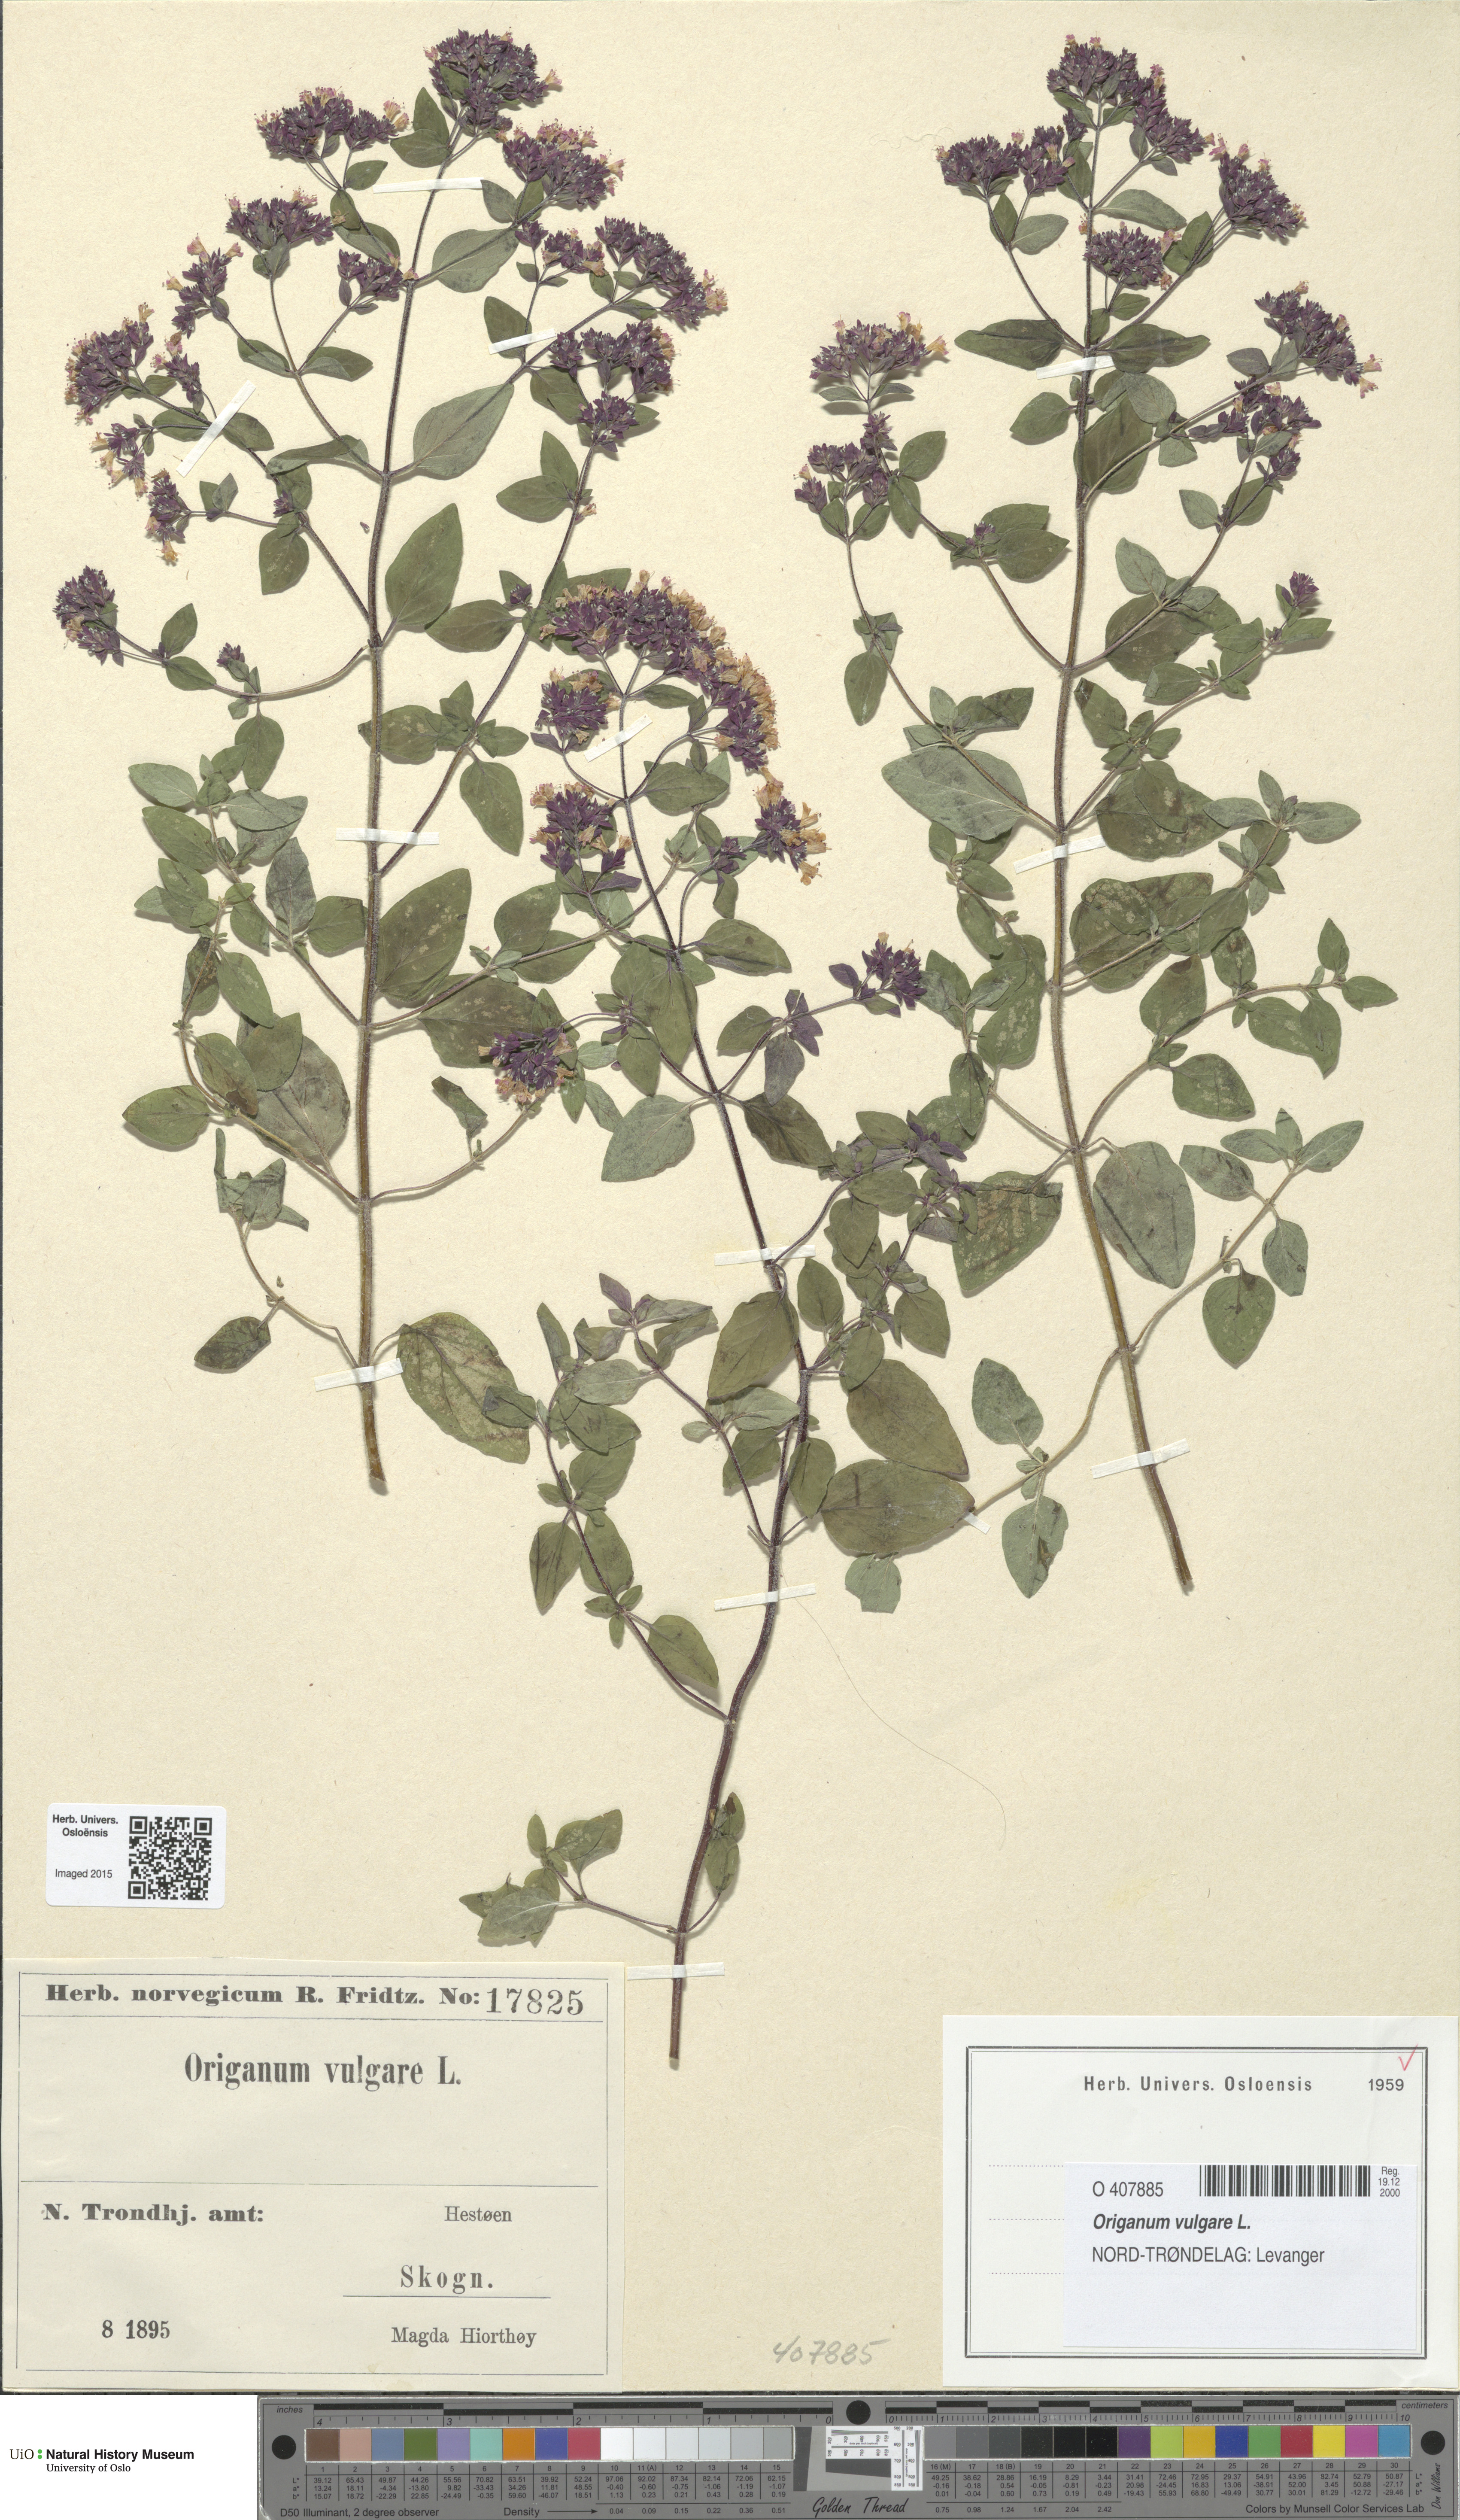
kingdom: Plantae
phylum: Tracheophyta
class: Magnoliopsida
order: Lamiales
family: Lamiaceae
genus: Origanum
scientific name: Origanum vulgare
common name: Wild marjoram
